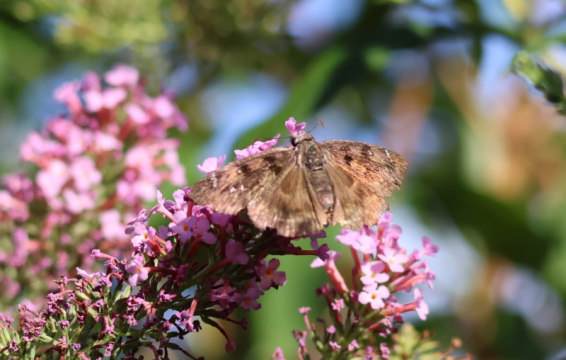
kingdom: Animalia
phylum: Arthropoda
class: Insecta
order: Lepidoptera
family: Hesperiidae
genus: Erynnis
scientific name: Erynnis tristis
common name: Mournful Duskywing
